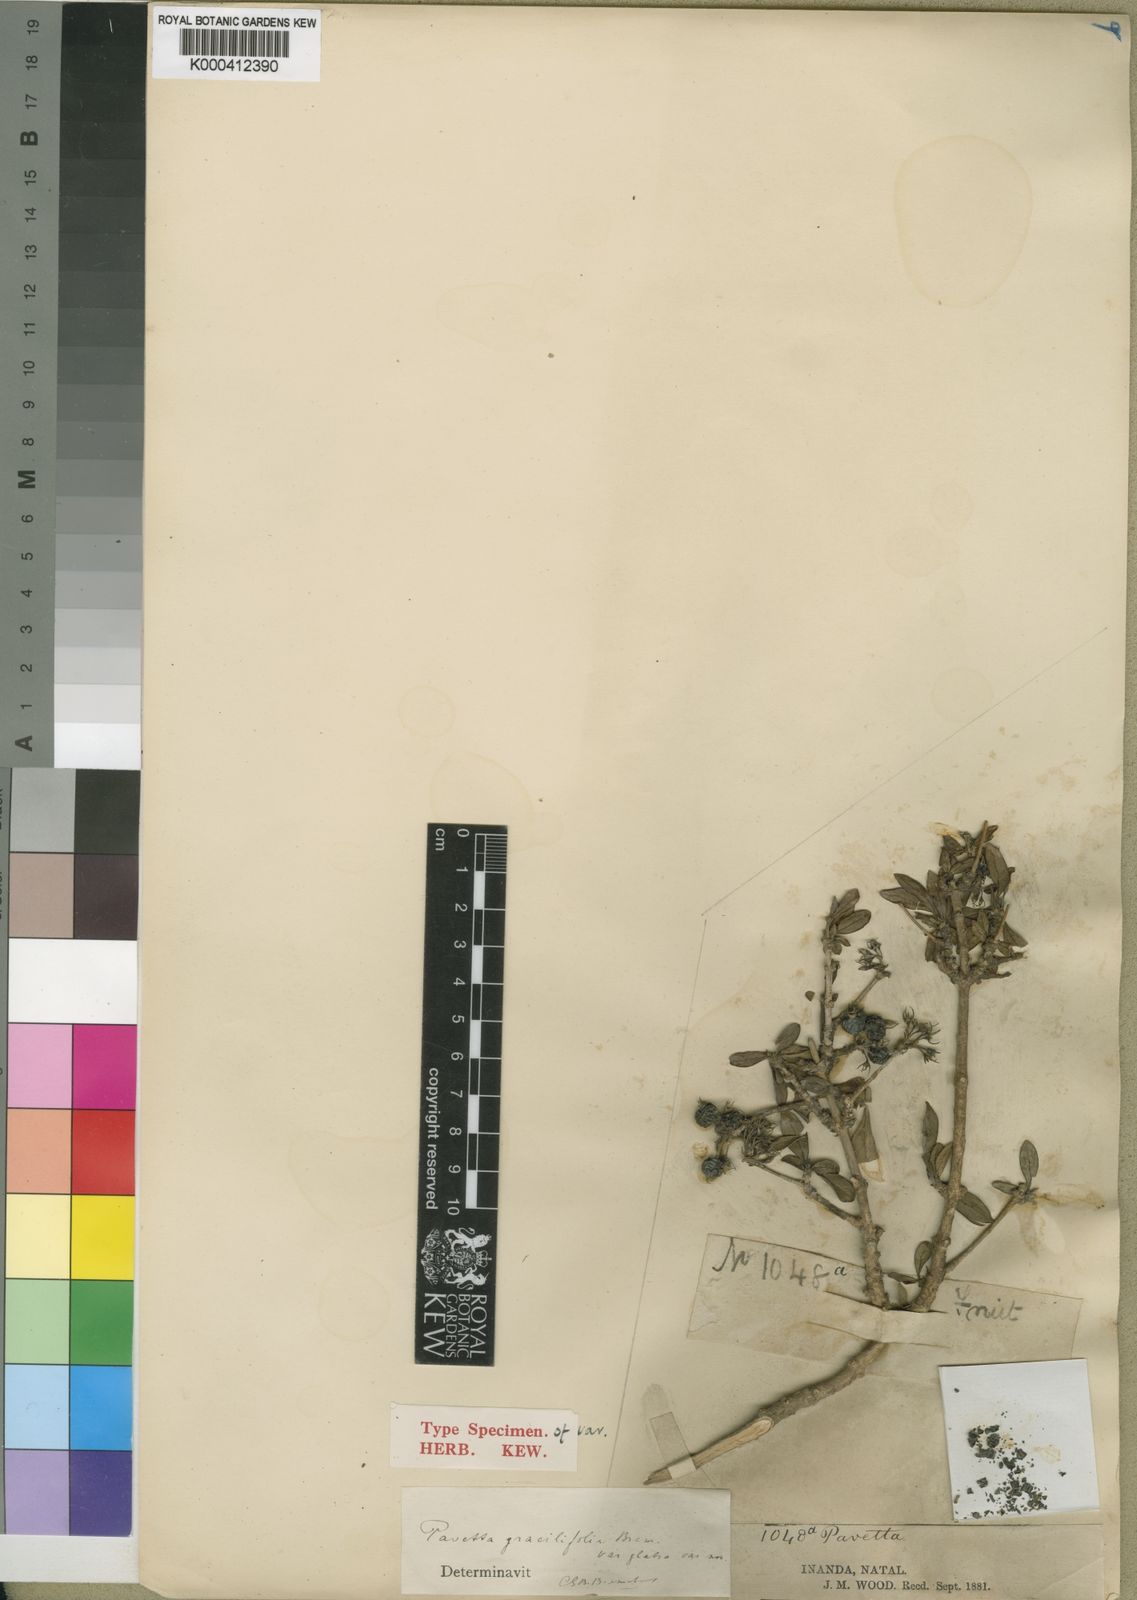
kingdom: Plantae
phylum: Tracheophyta
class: Magnoliopsida
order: Gentianales
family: Rubiaceae
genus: Pavetta
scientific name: Pavetta gracilifolia
